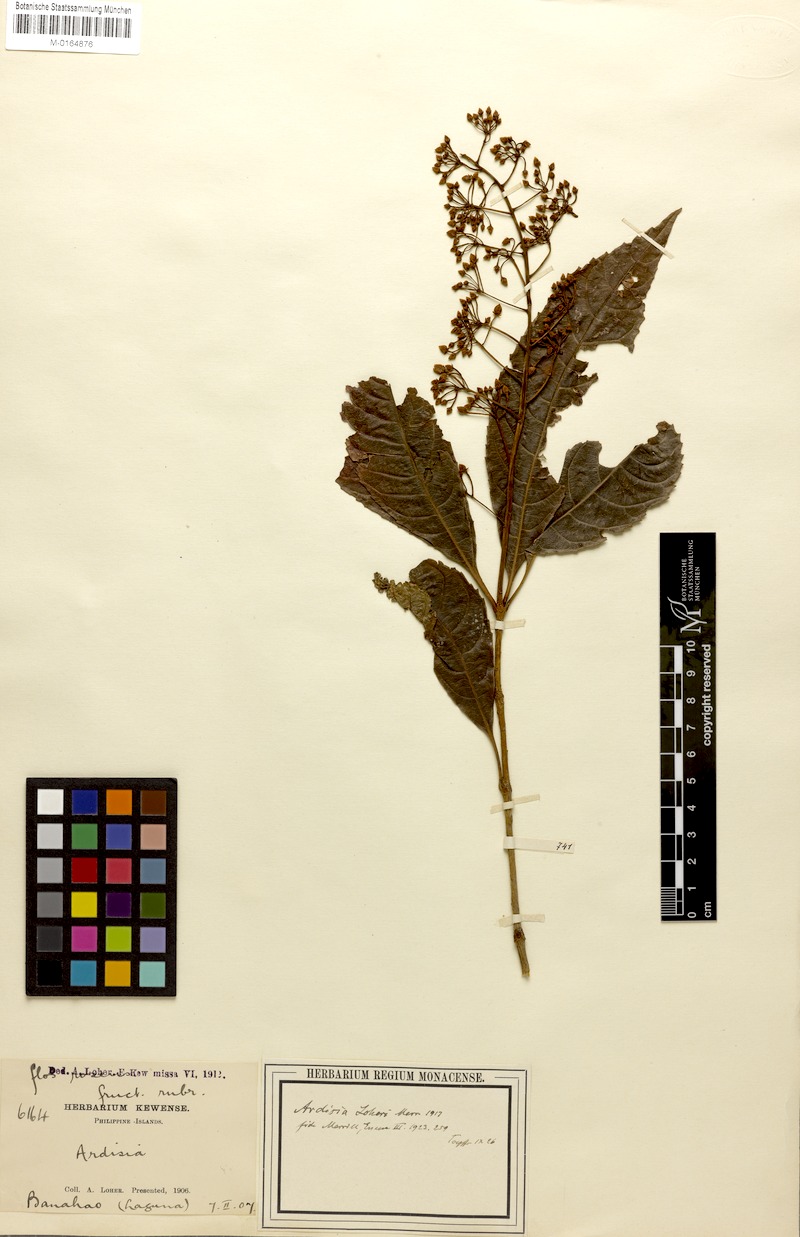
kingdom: Plantae
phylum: Tracheophyta
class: Magnoliopsida
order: Ericales
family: Primulaceae
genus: Ardisia
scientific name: Ardisia loheri
